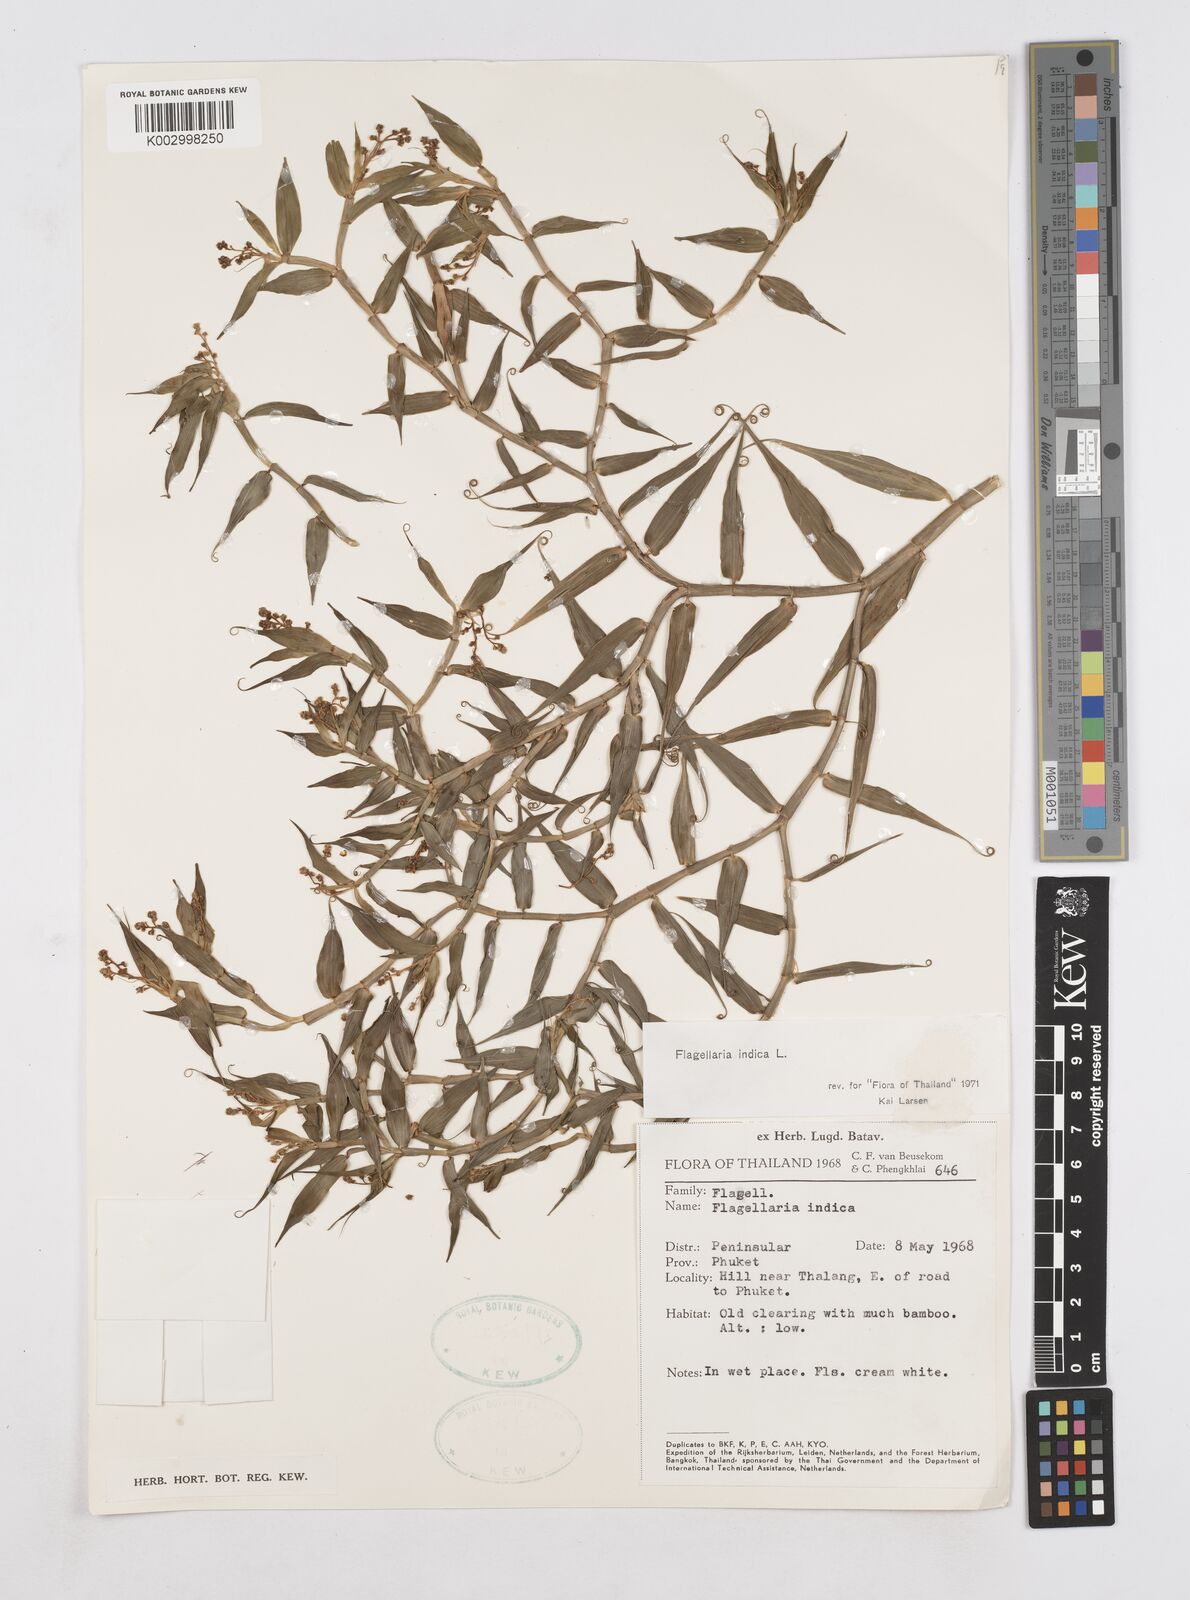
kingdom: Plantae
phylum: Tracheophyta
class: Liliopsida
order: Poales
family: Flagellariaceae
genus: Flagellaria
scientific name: Flagellaria indica
